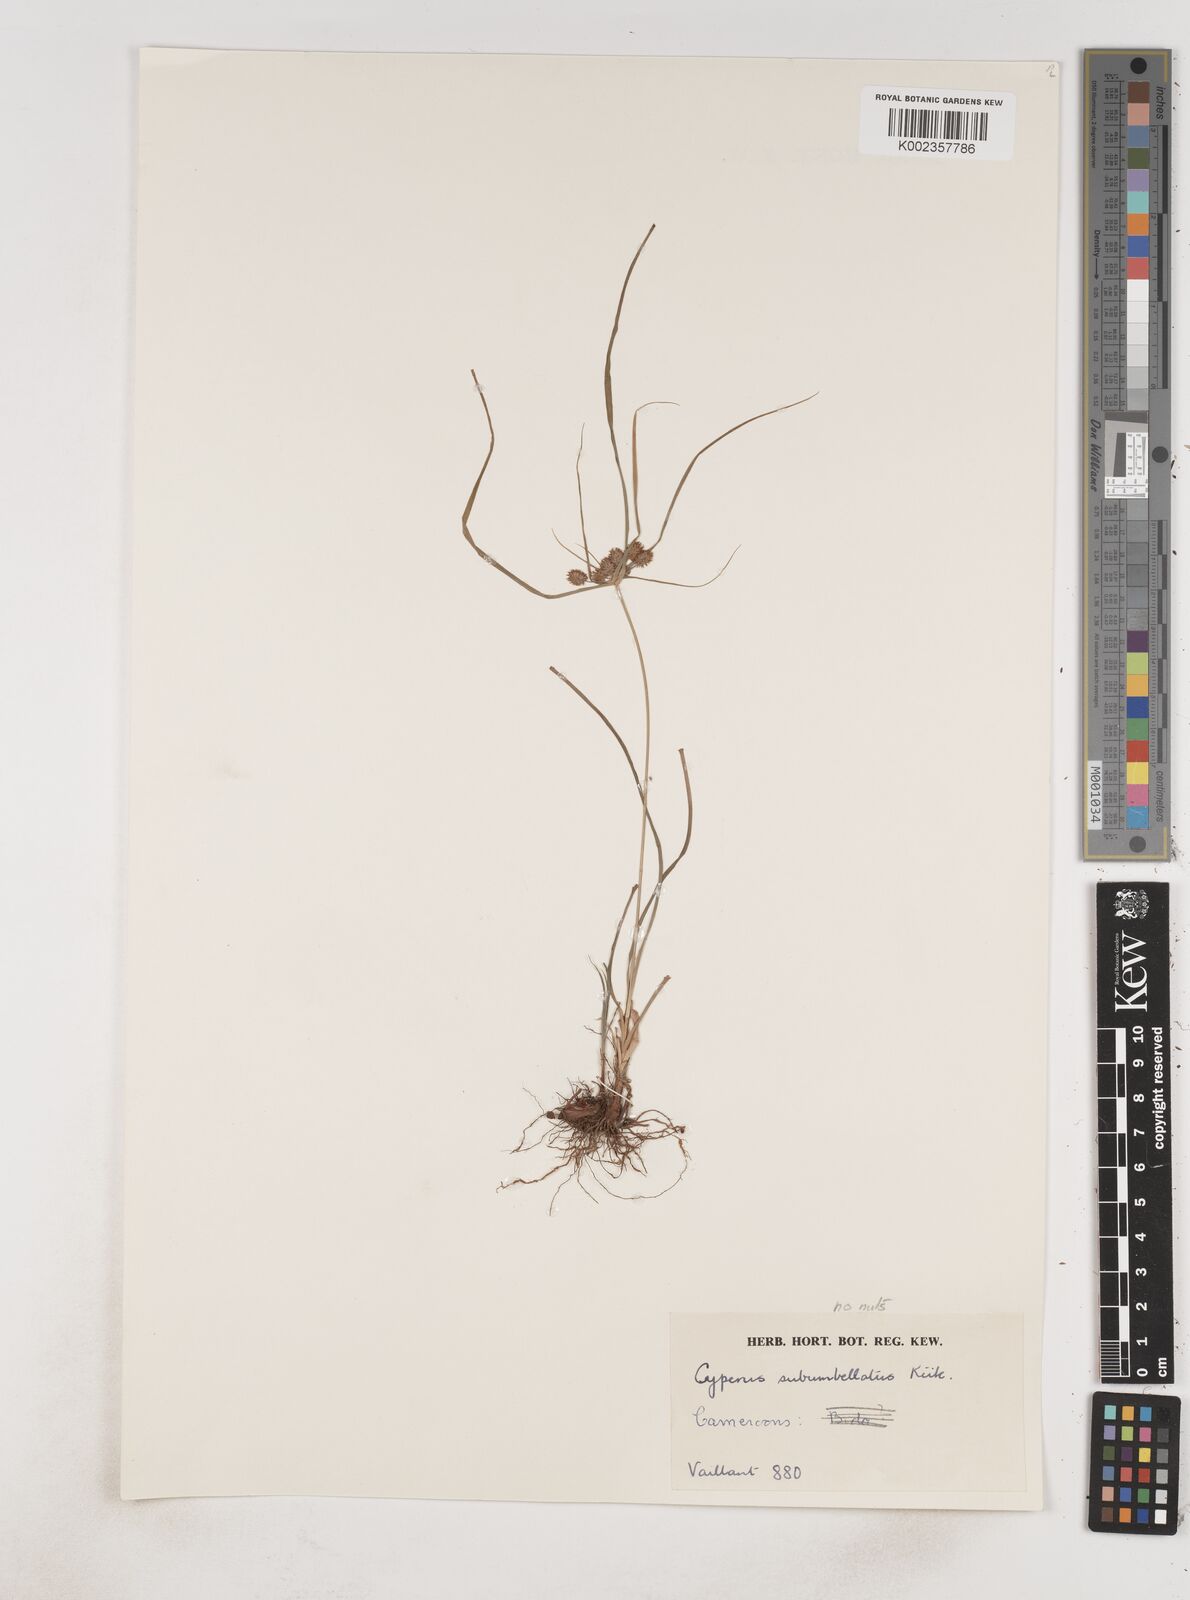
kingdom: Plantae
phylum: Tracheophyta
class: Liliopsida
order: Poales
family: Cyperaceae
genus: Cyperus
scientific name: Cyperus sublimis
